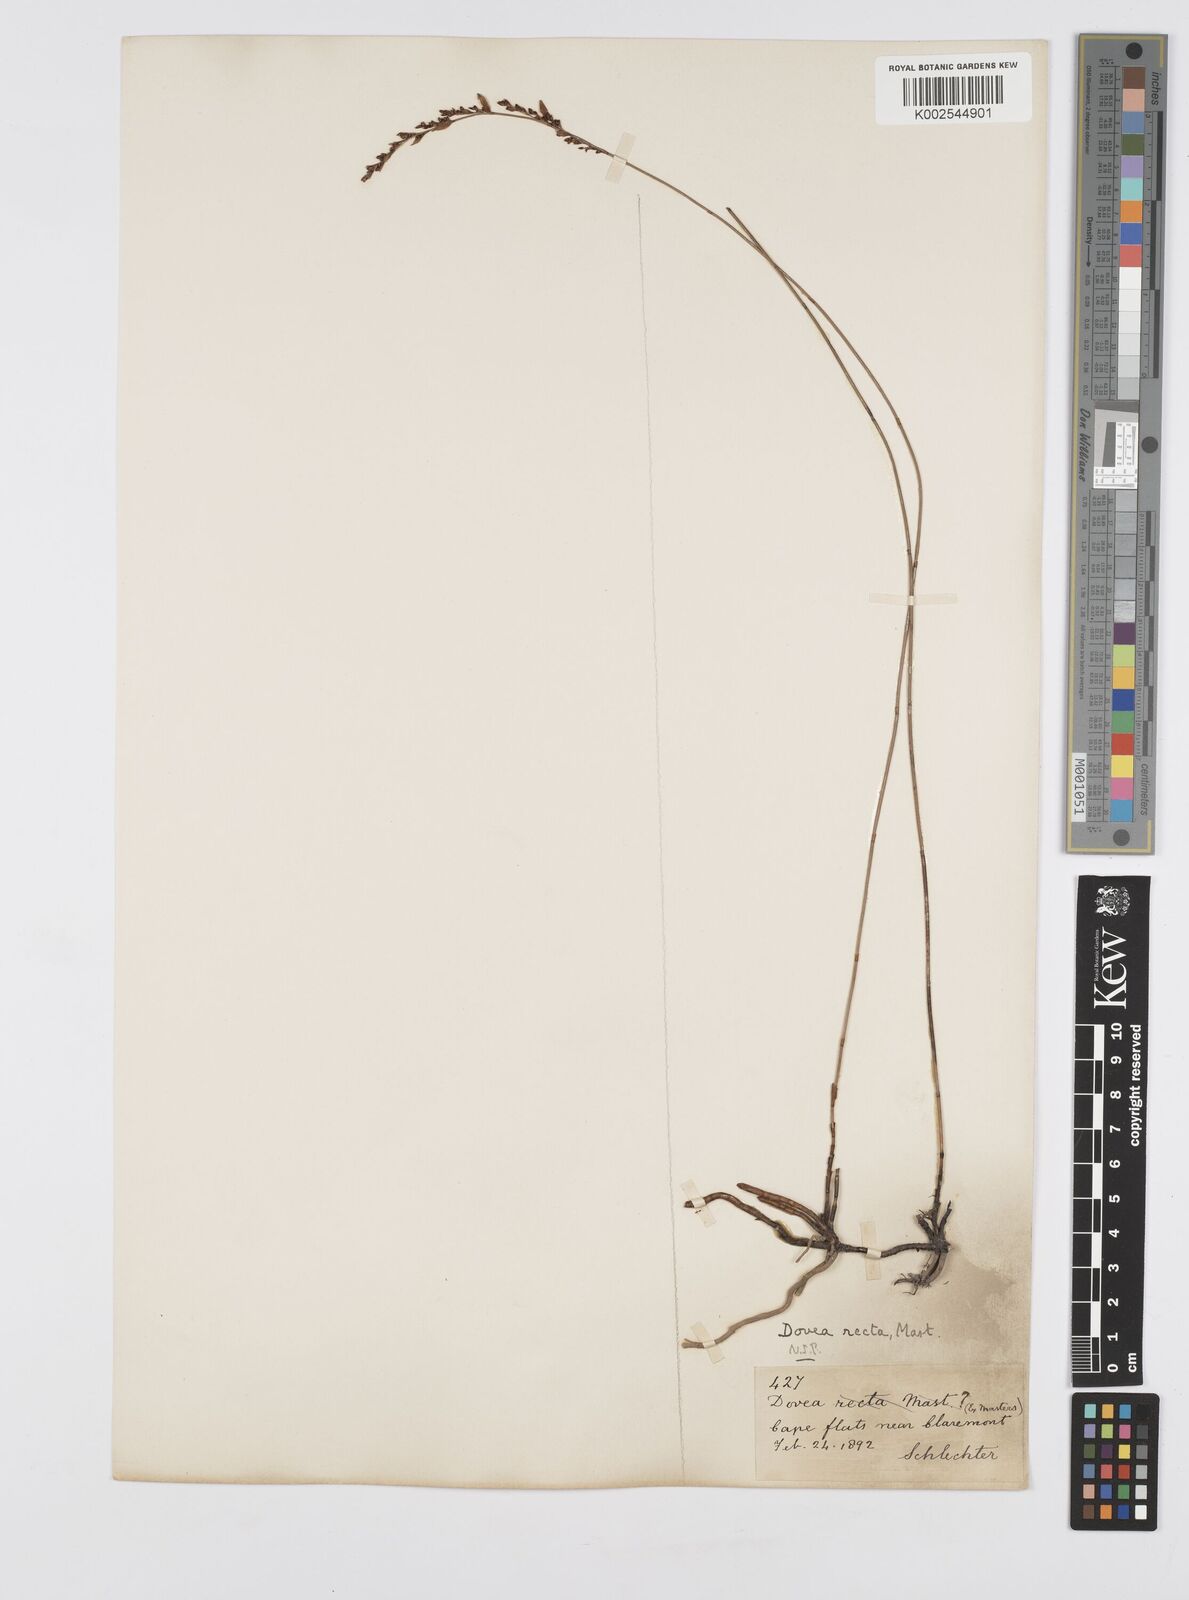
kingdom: Plantae
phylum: Tracheophyta
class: Liliopsida
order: Poales
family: Restionaceae
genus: Elegia
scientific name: Elegia recta
